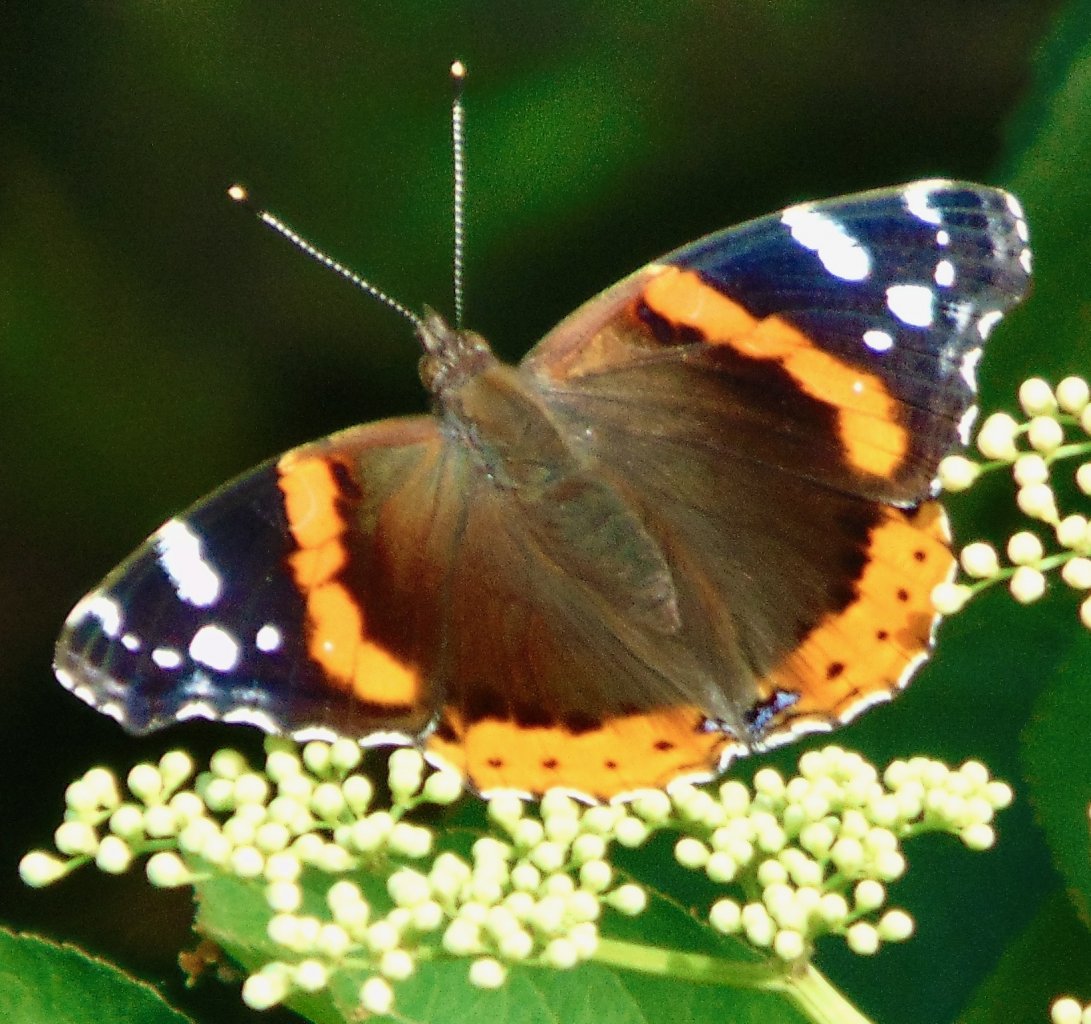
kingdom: Animalia
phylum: Arthropoda
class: Insecta
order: Lepidoptera
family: Nymphalidae
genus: Vanessa
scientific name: Vanessa atalanta
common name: Red Admiral
